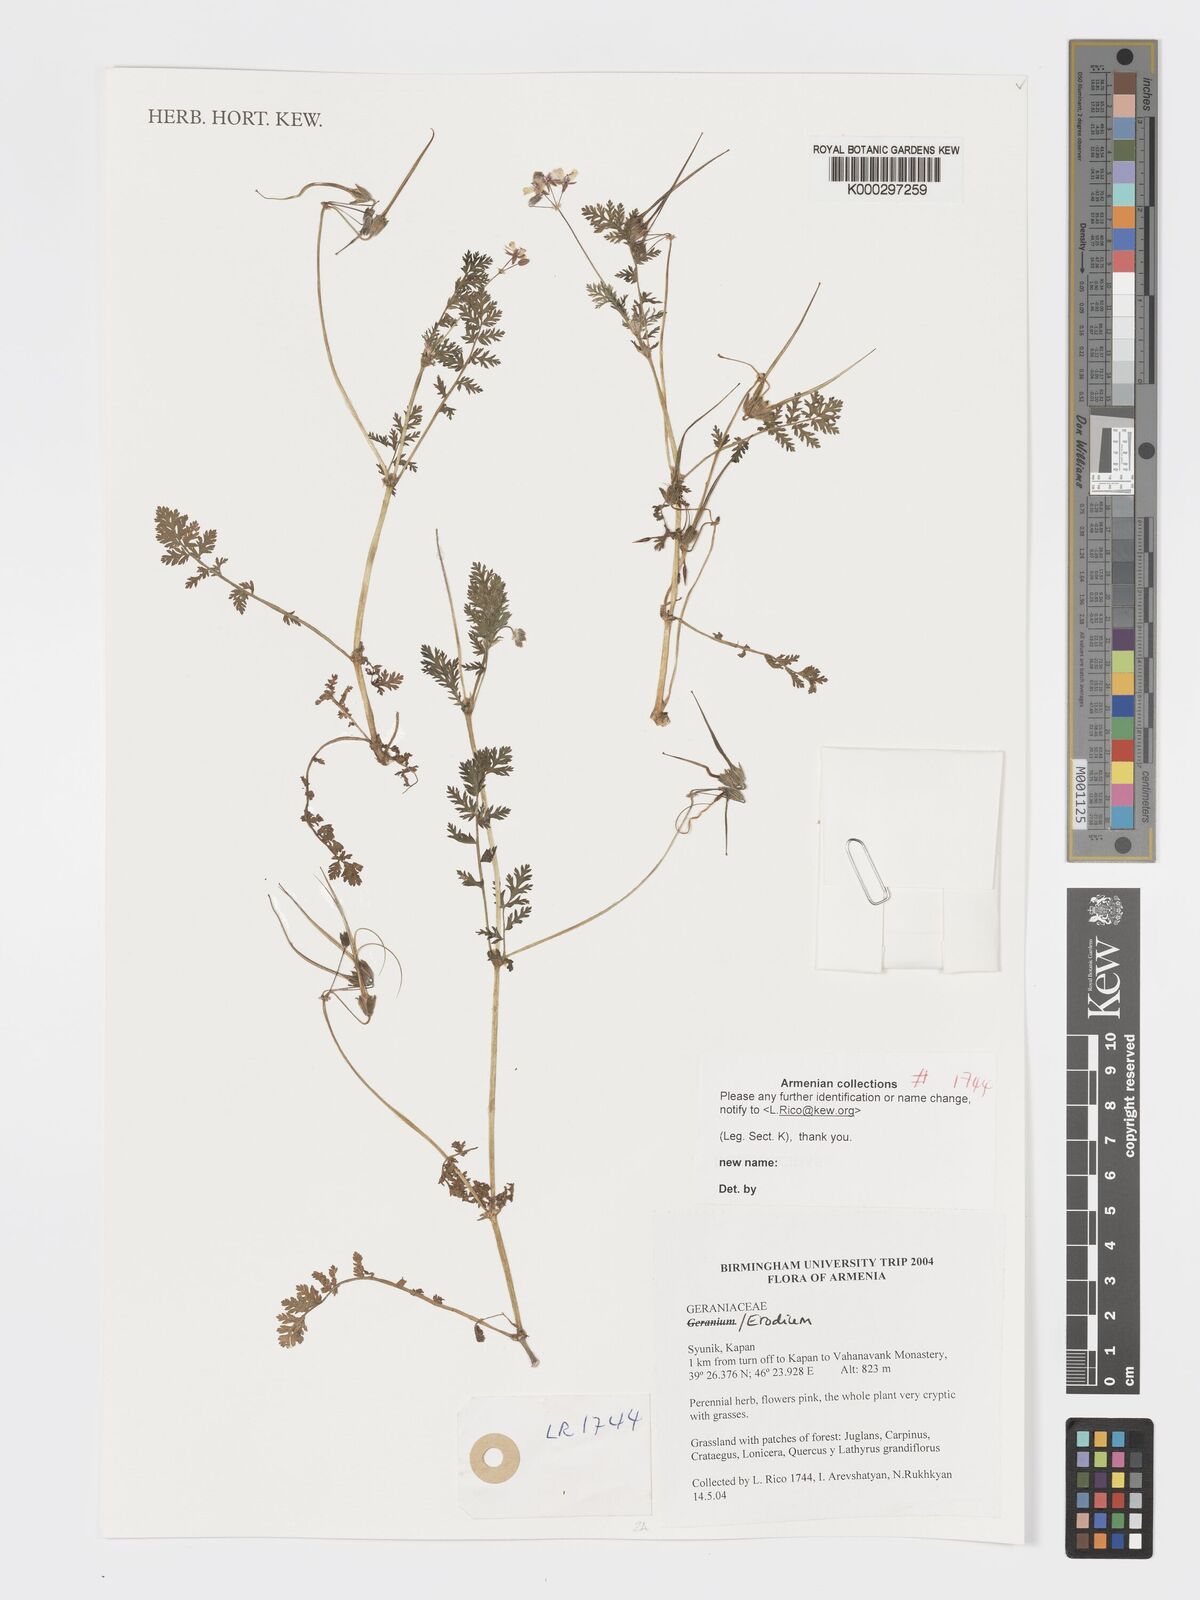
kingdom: Plantae
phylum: Tracheophyta
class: Magnoliopsida
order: Geraniales
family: Geraniaceae
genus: Geranium
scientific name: Geranium
